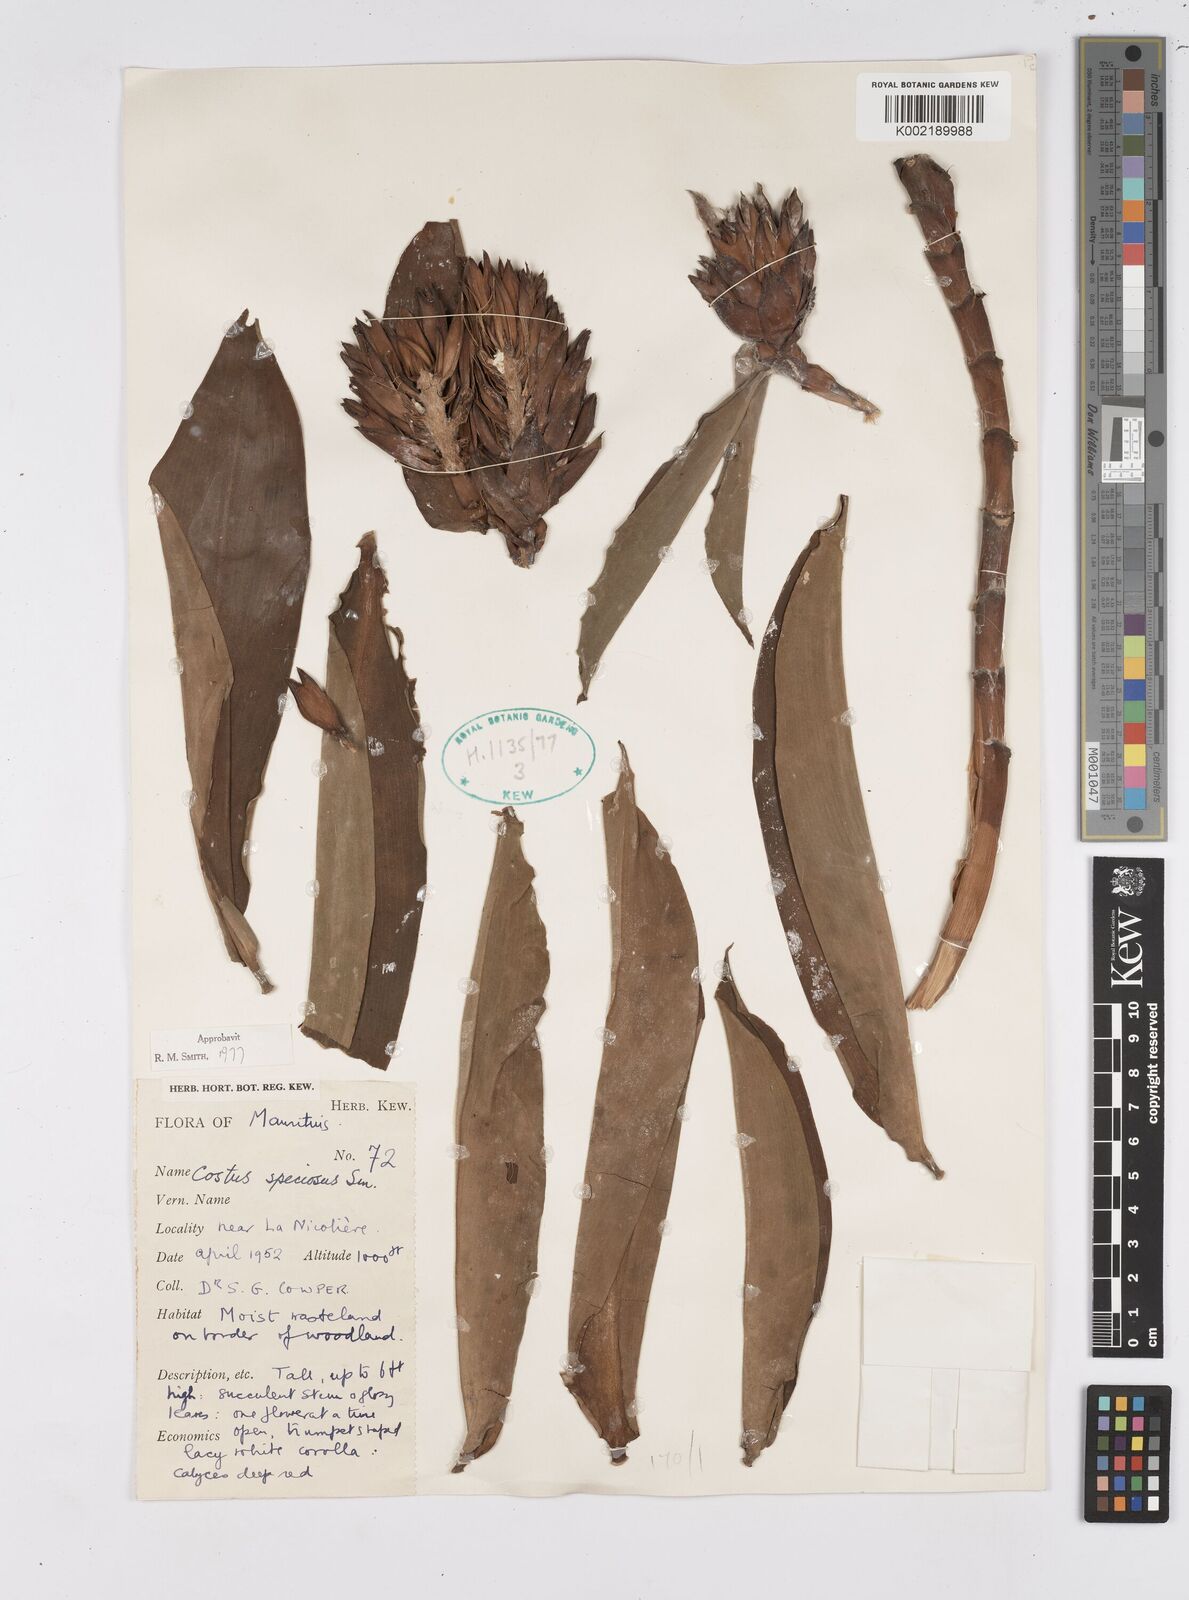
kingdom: Plantae
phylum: Tracheophyta
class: Liliopsida
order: Zingiberales
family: Costaceae
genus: Hellenia
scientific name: Hellenia speciosa
